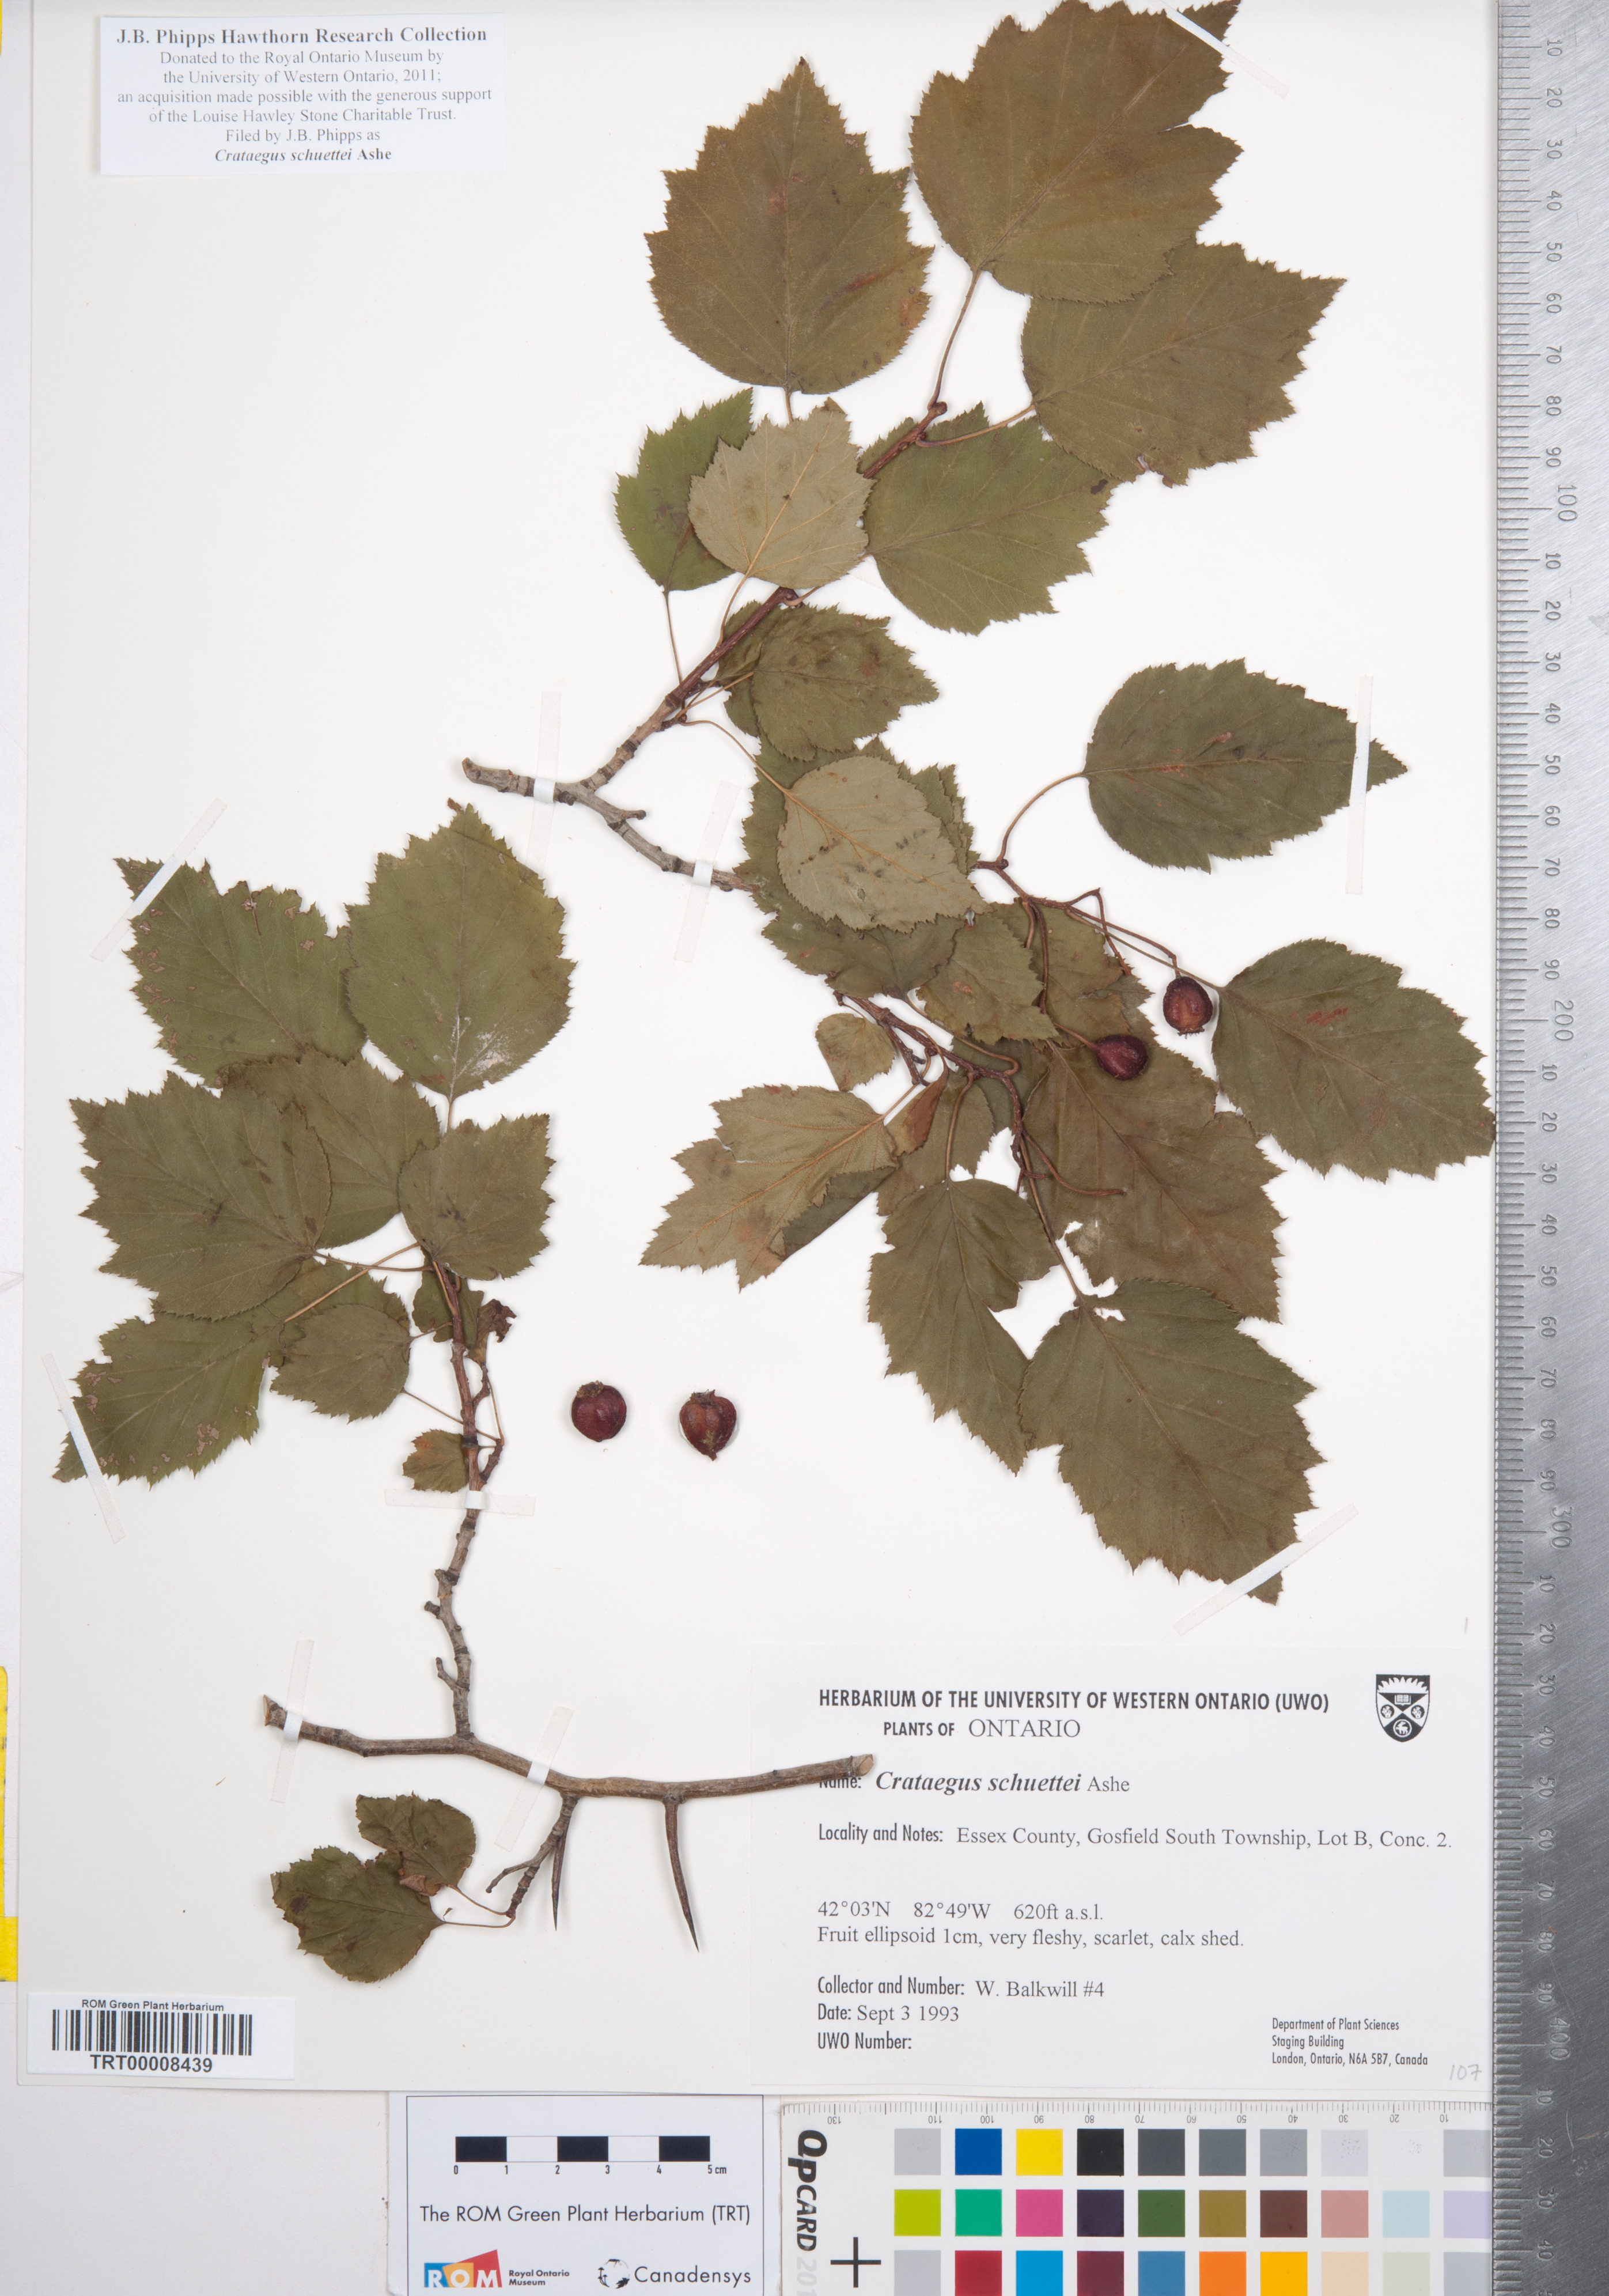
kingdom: Plantae
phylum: Tracheophyta
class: Magnoliopsida
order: Rosales
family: Rosaceae
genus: Crataegus
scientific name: Crataegus schuettei
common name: Schuette's hawthorn
